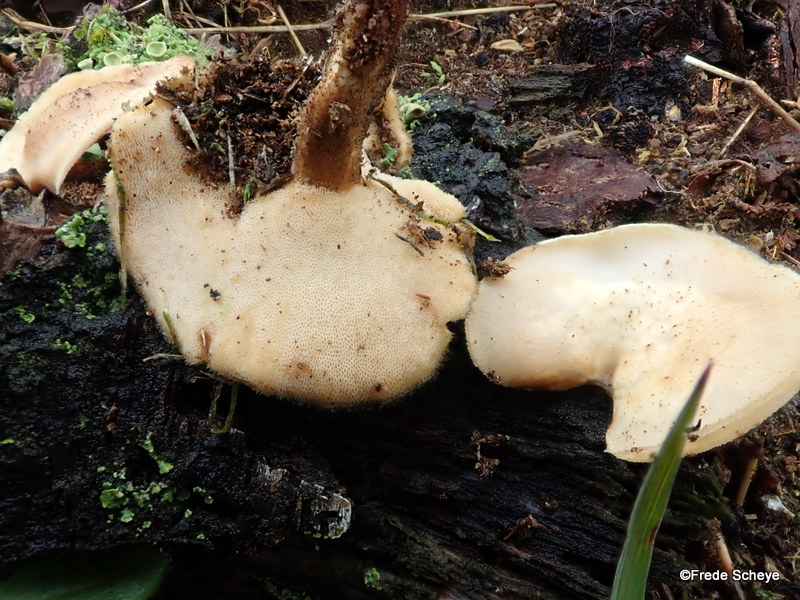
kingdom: Fungi
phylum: Basidiomycota
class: Agaricomycetes
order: Polyporales
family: Polyporaceae
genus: Polyporus
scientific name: Polyporus tuberaster
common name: knoldet stilkporesvamp
